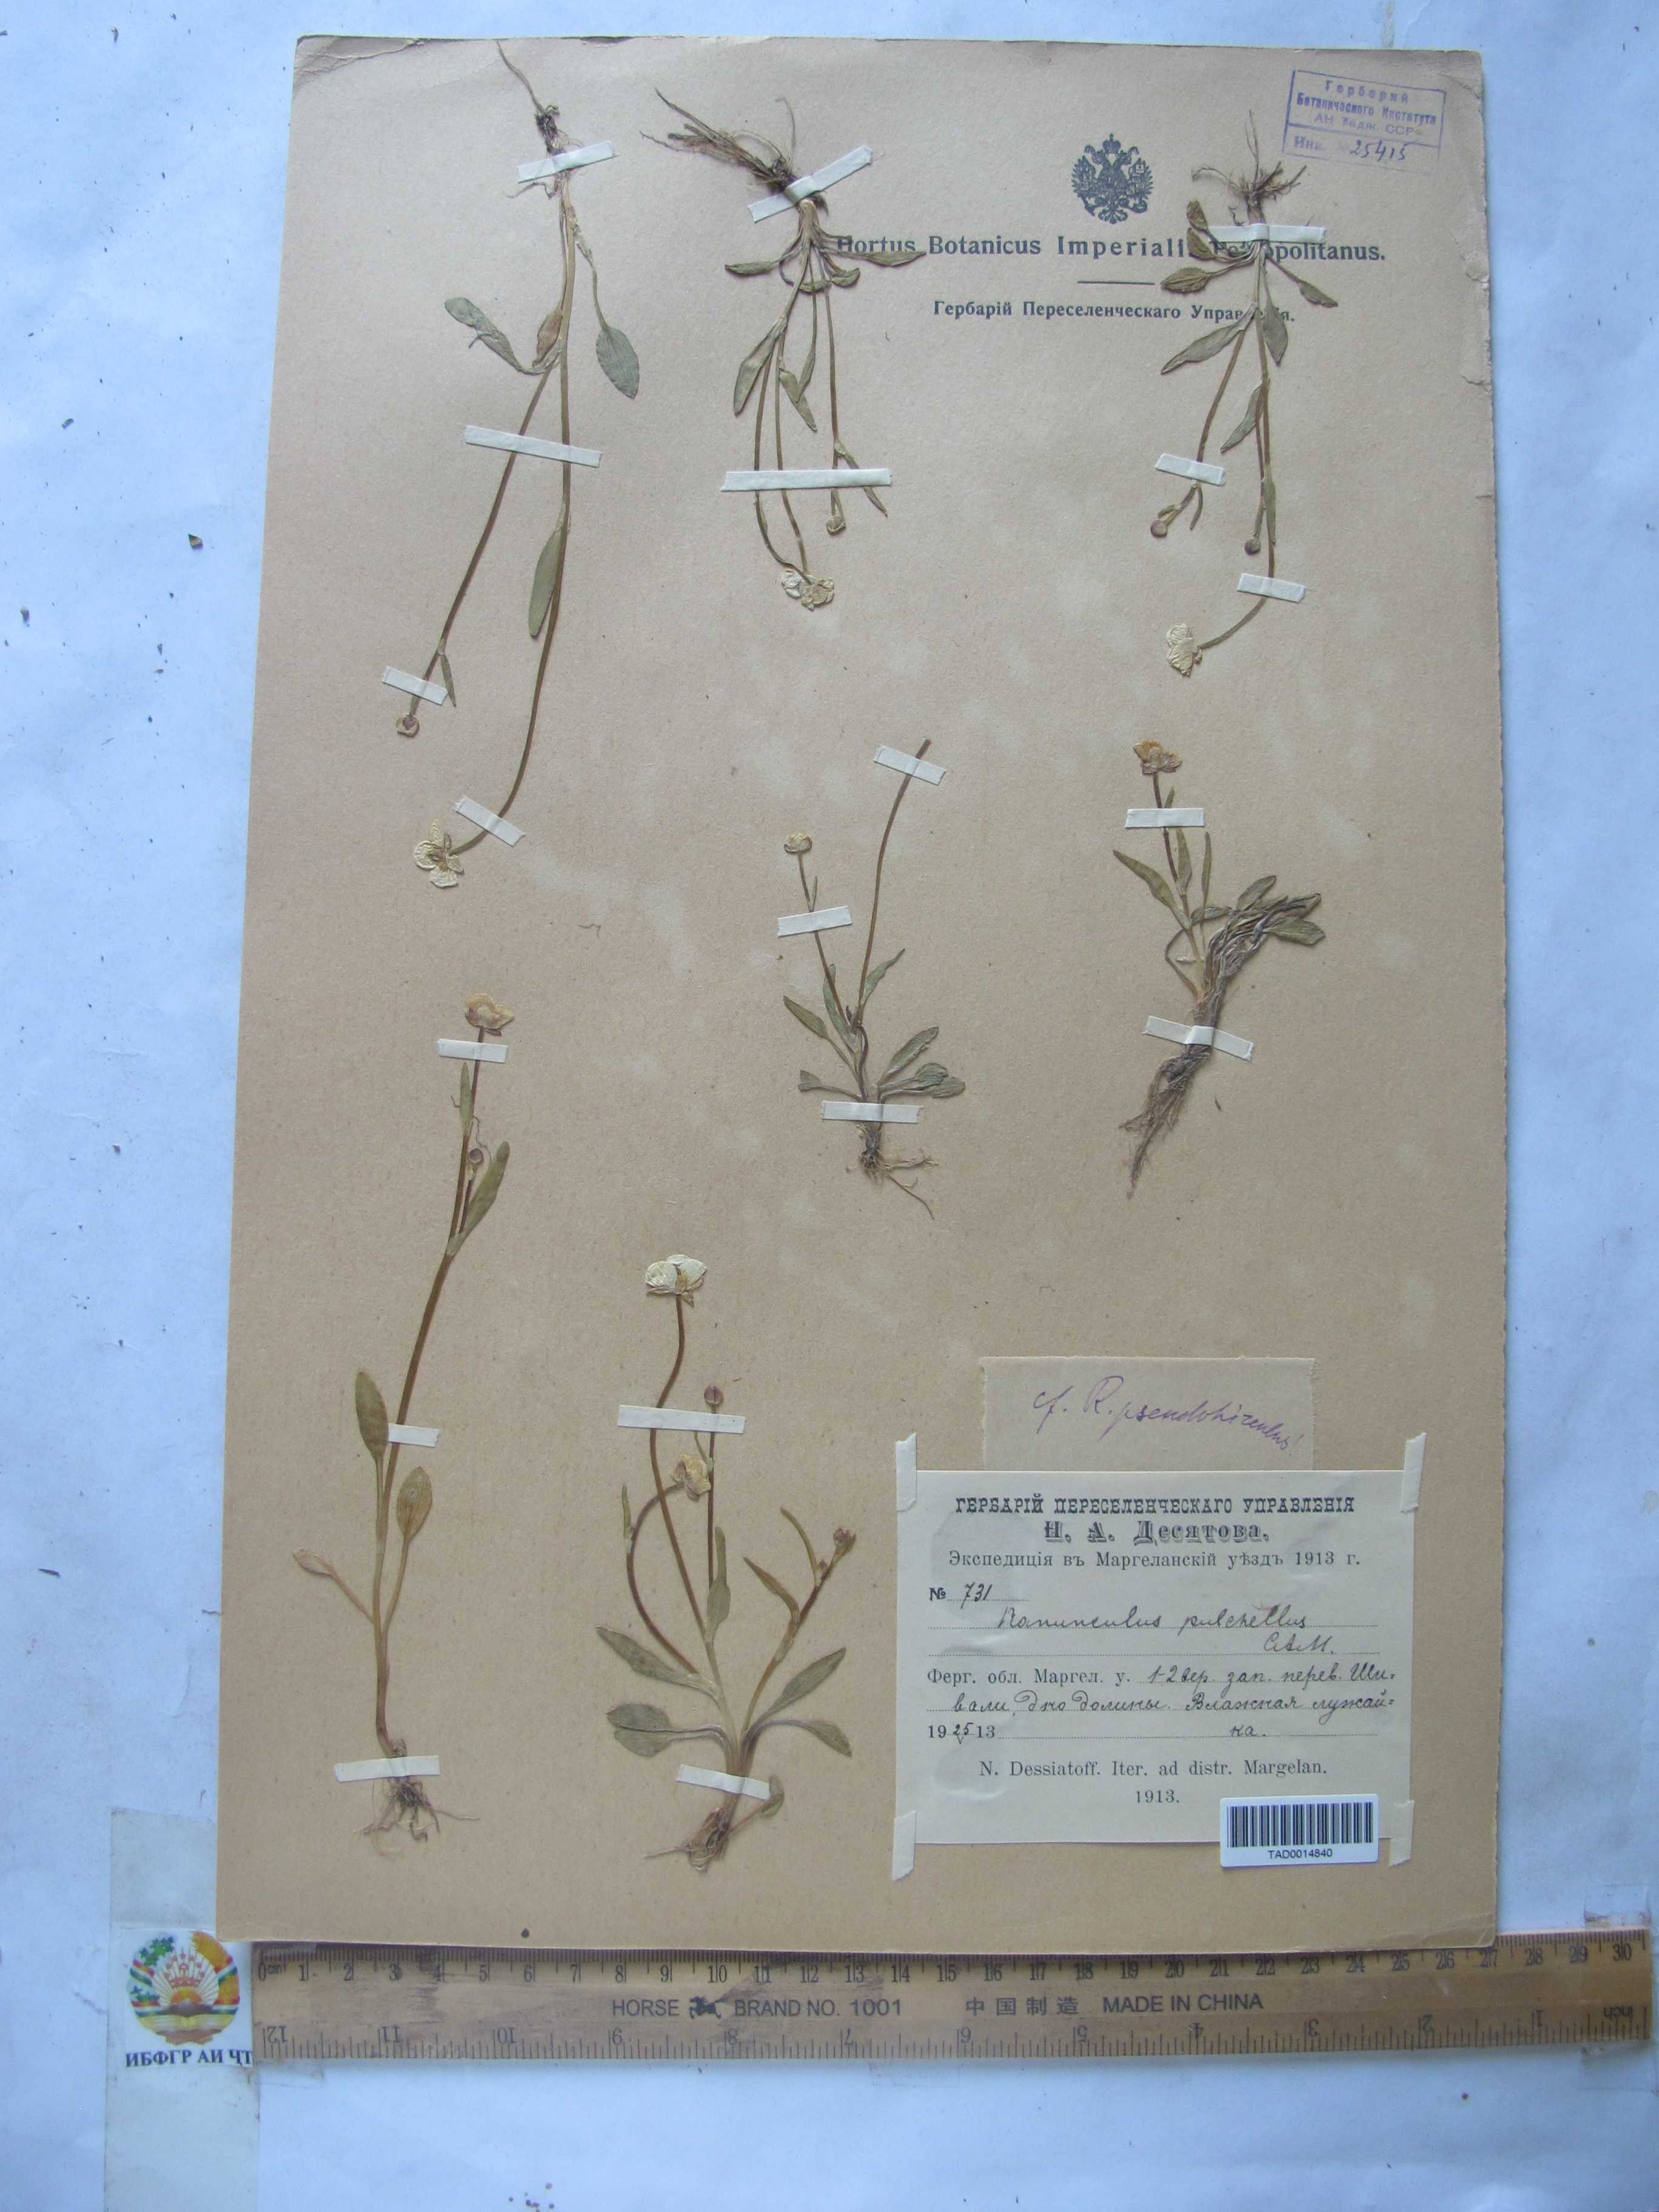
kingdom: Plantae
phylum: Tracheophyta
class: Magnoliopsida
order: Ranunculales
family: Ranunculaceae
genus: Ranunculus
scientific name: Ranunculus pseudohirculus
